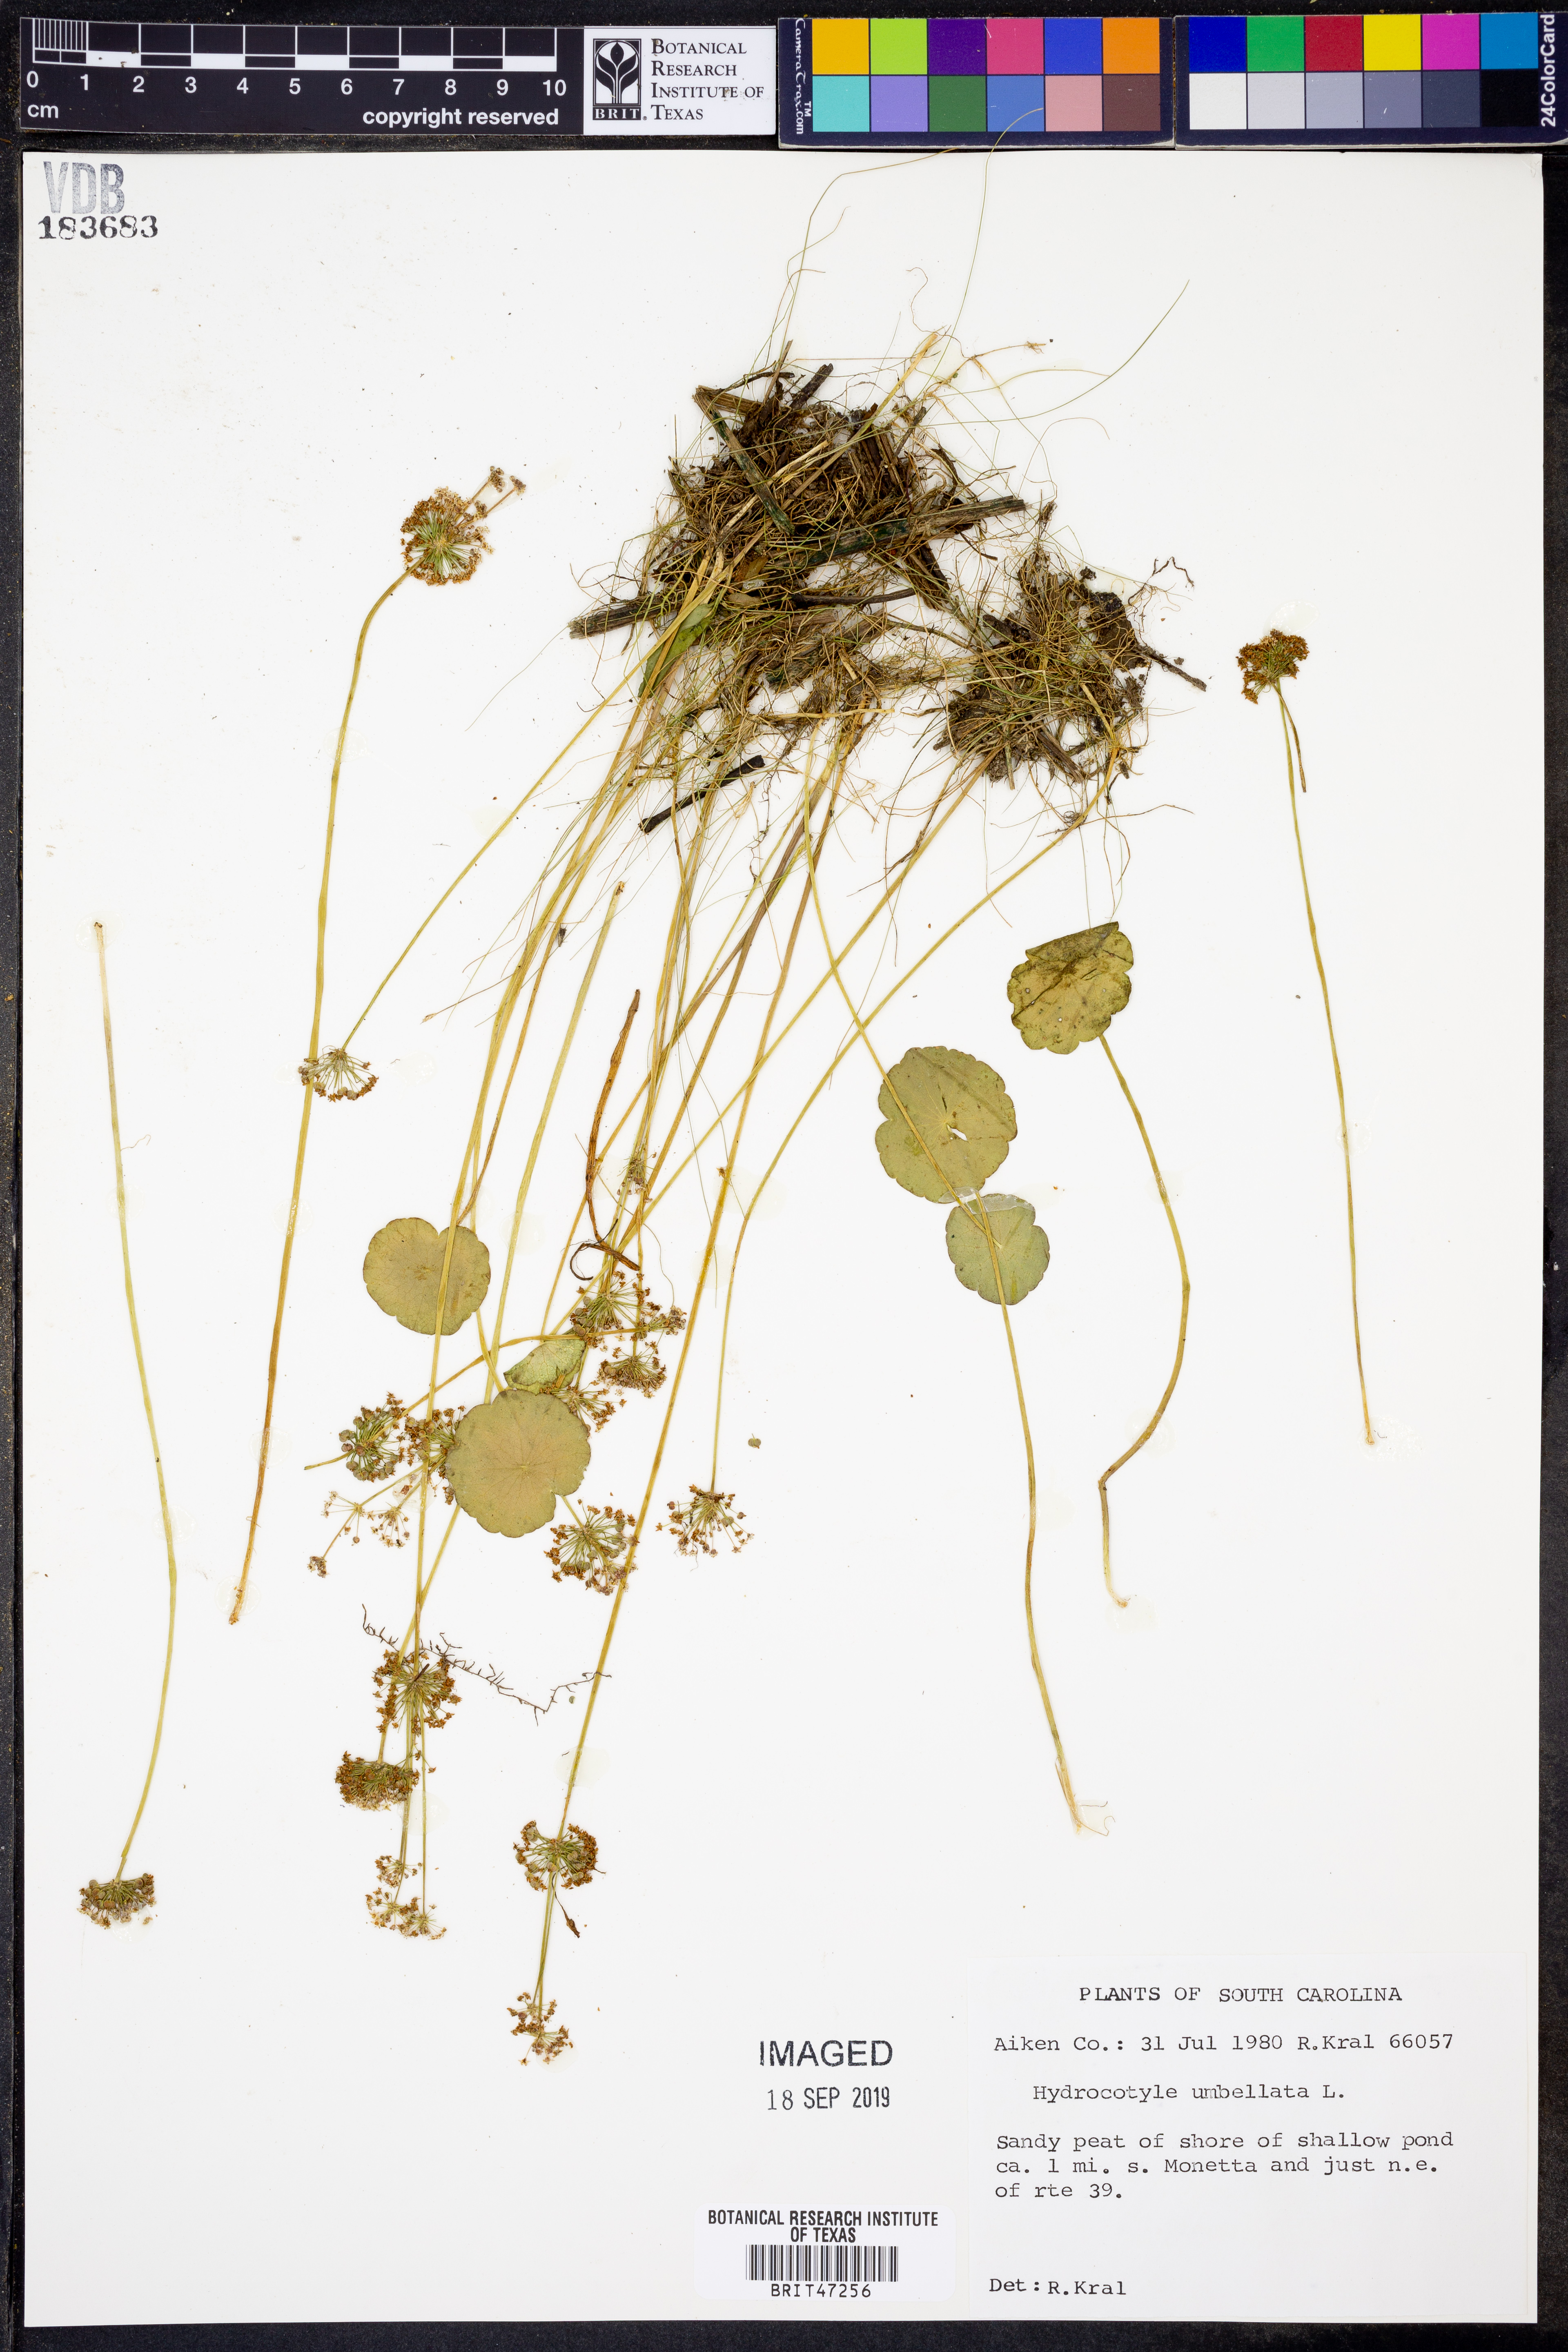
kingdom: Plantae
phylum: Tracheophyta
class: Magnoliopsida
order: Apiales
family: Araliaceae
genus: Hydrocotyle
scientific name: Hydrocotyle umbellata
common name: Water pennywort
